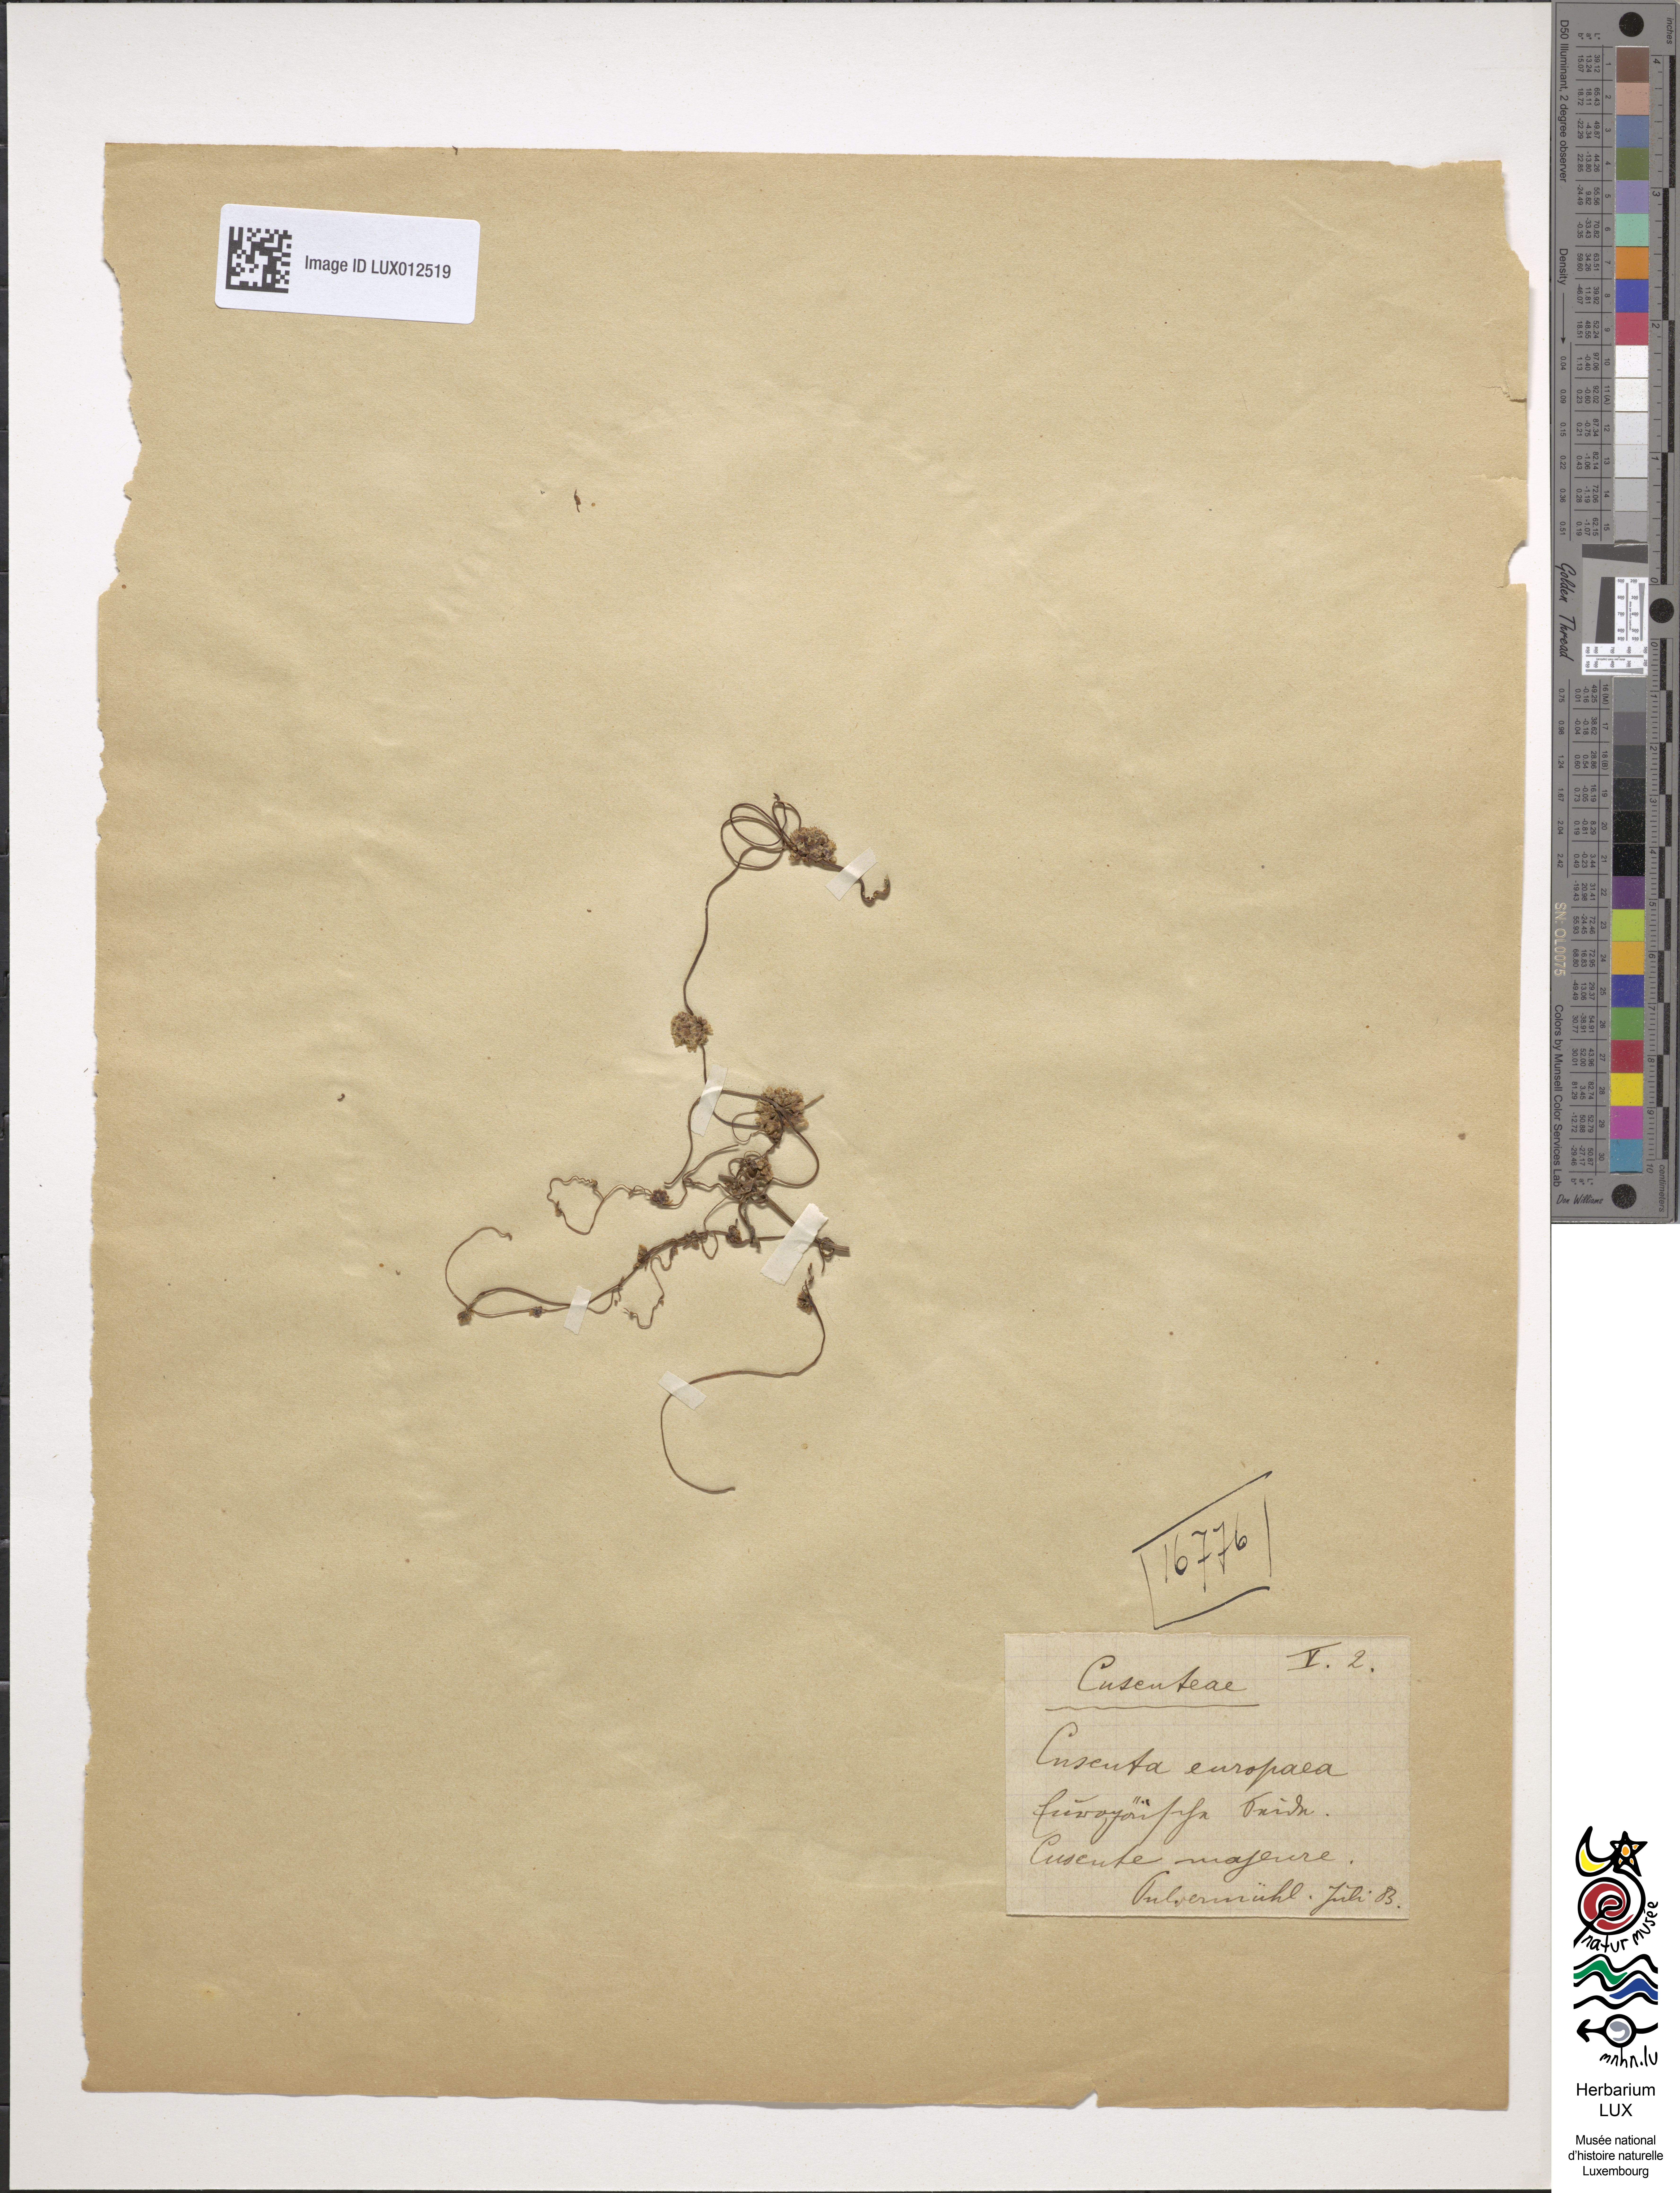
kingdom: Plantae
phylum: Tracheophyta
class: Magnoliopsida
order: Solanales
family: Convolvulaceae
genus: Cuscuta
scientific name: Cuscuta europaea
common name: Greater dodder
